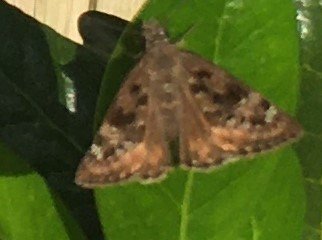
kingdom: Animalia
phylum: Arthropoda
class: Insecta
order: Lepidoptera
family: Hesperiidae
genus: Gesta
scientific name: Gesta
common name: Horace's Duskywing
